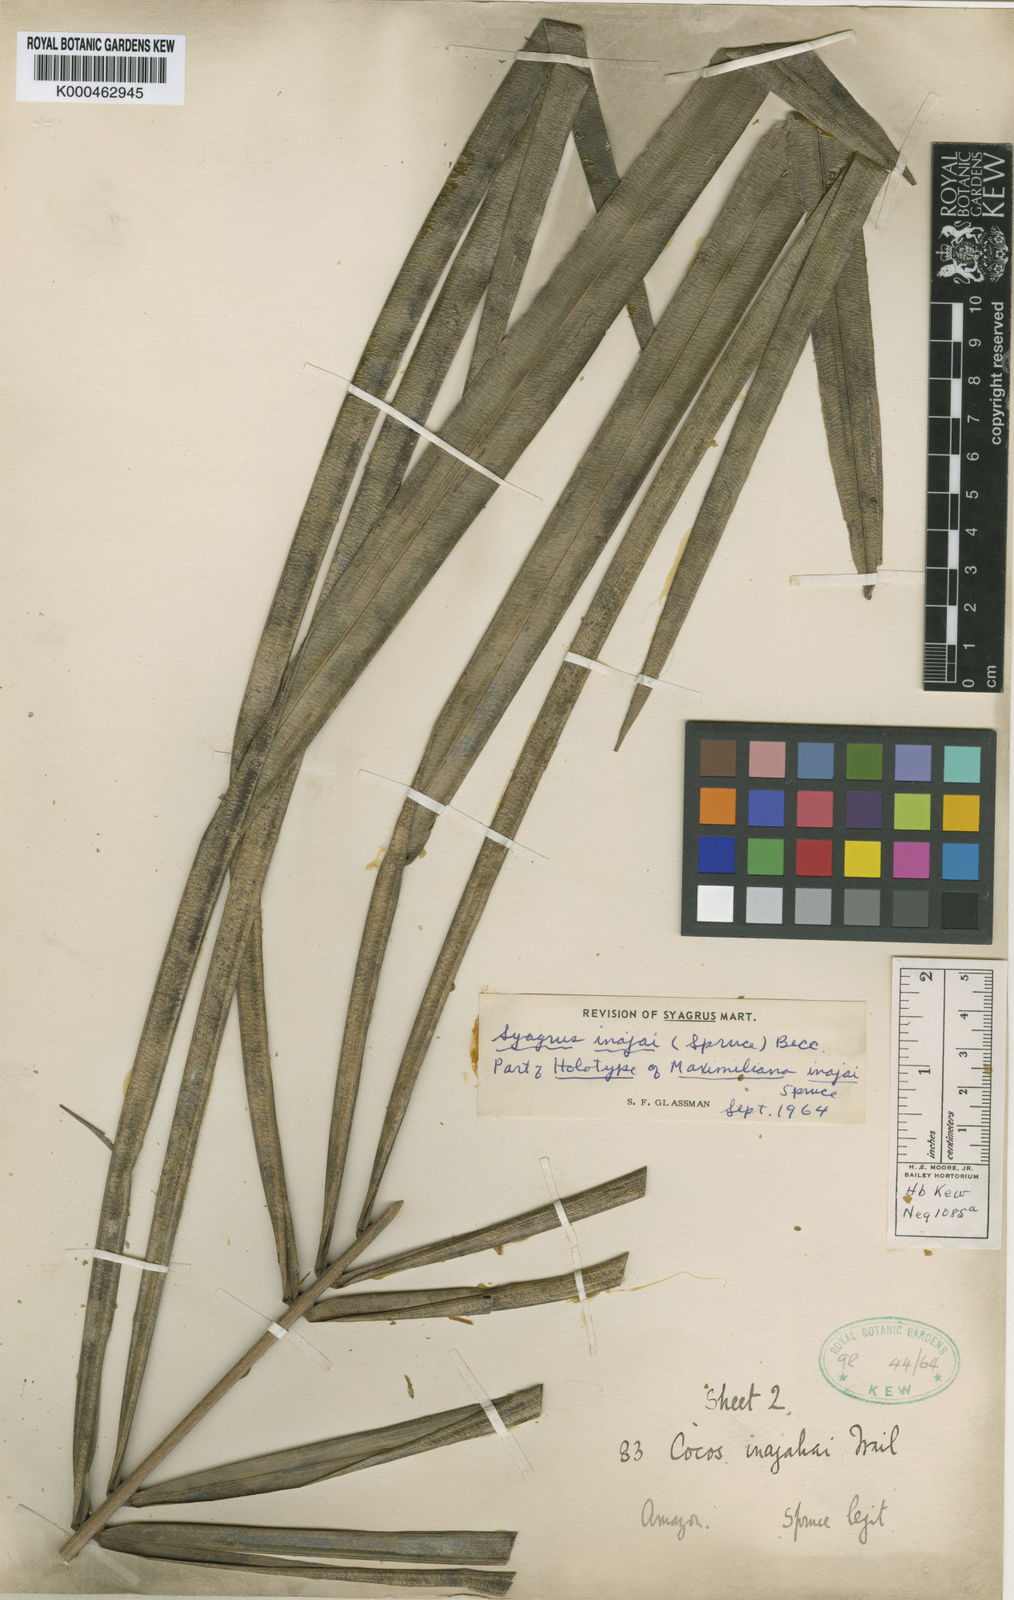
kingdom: Plantae
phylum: Tracheophyta
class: Liliopsida
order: Arecales
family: Arecaceae
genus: Syagrus
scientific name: Syagrus inajai
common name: Pupunha palm
